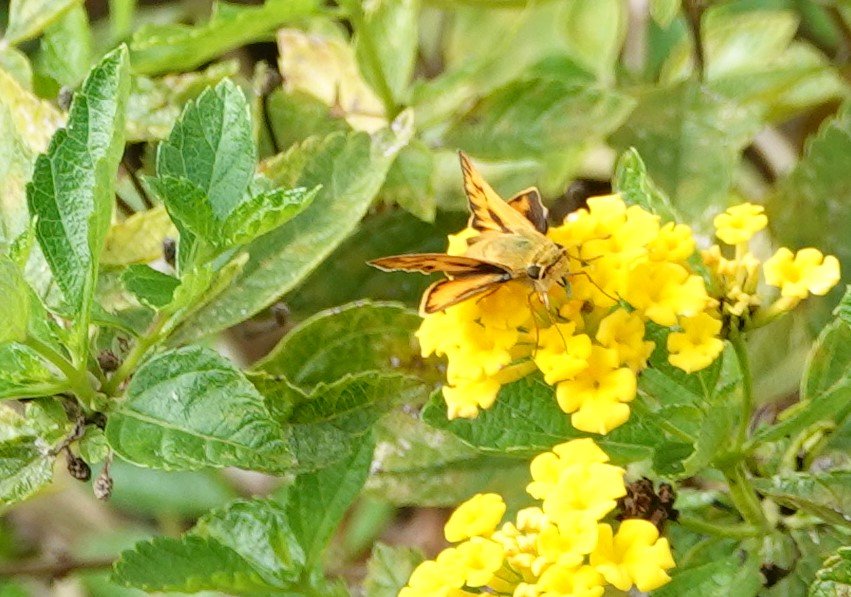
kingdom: Animalia
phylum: Arthropoda
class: Insecta
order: Lepidoptera
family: Hesperiidae
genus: Hylephila
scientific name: Hylephila phyleus
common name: Fiery Skipper
